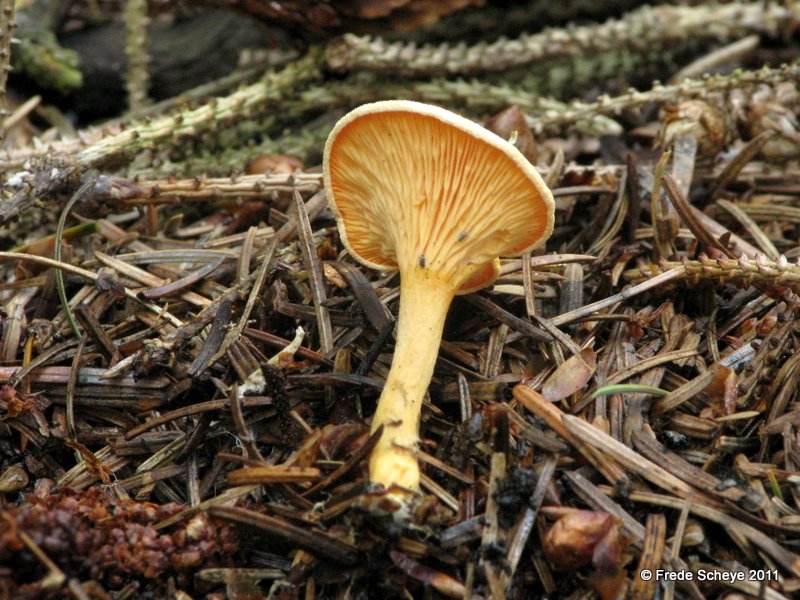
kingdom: Fungi
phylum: Basidiomycota
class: Agaricomycetes
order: Boletales
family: Hygrophoropsidaceae
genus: Hygrophoropsis
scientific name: Hygrophoropsis aurantiaca
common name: almindelig orangekantarel
